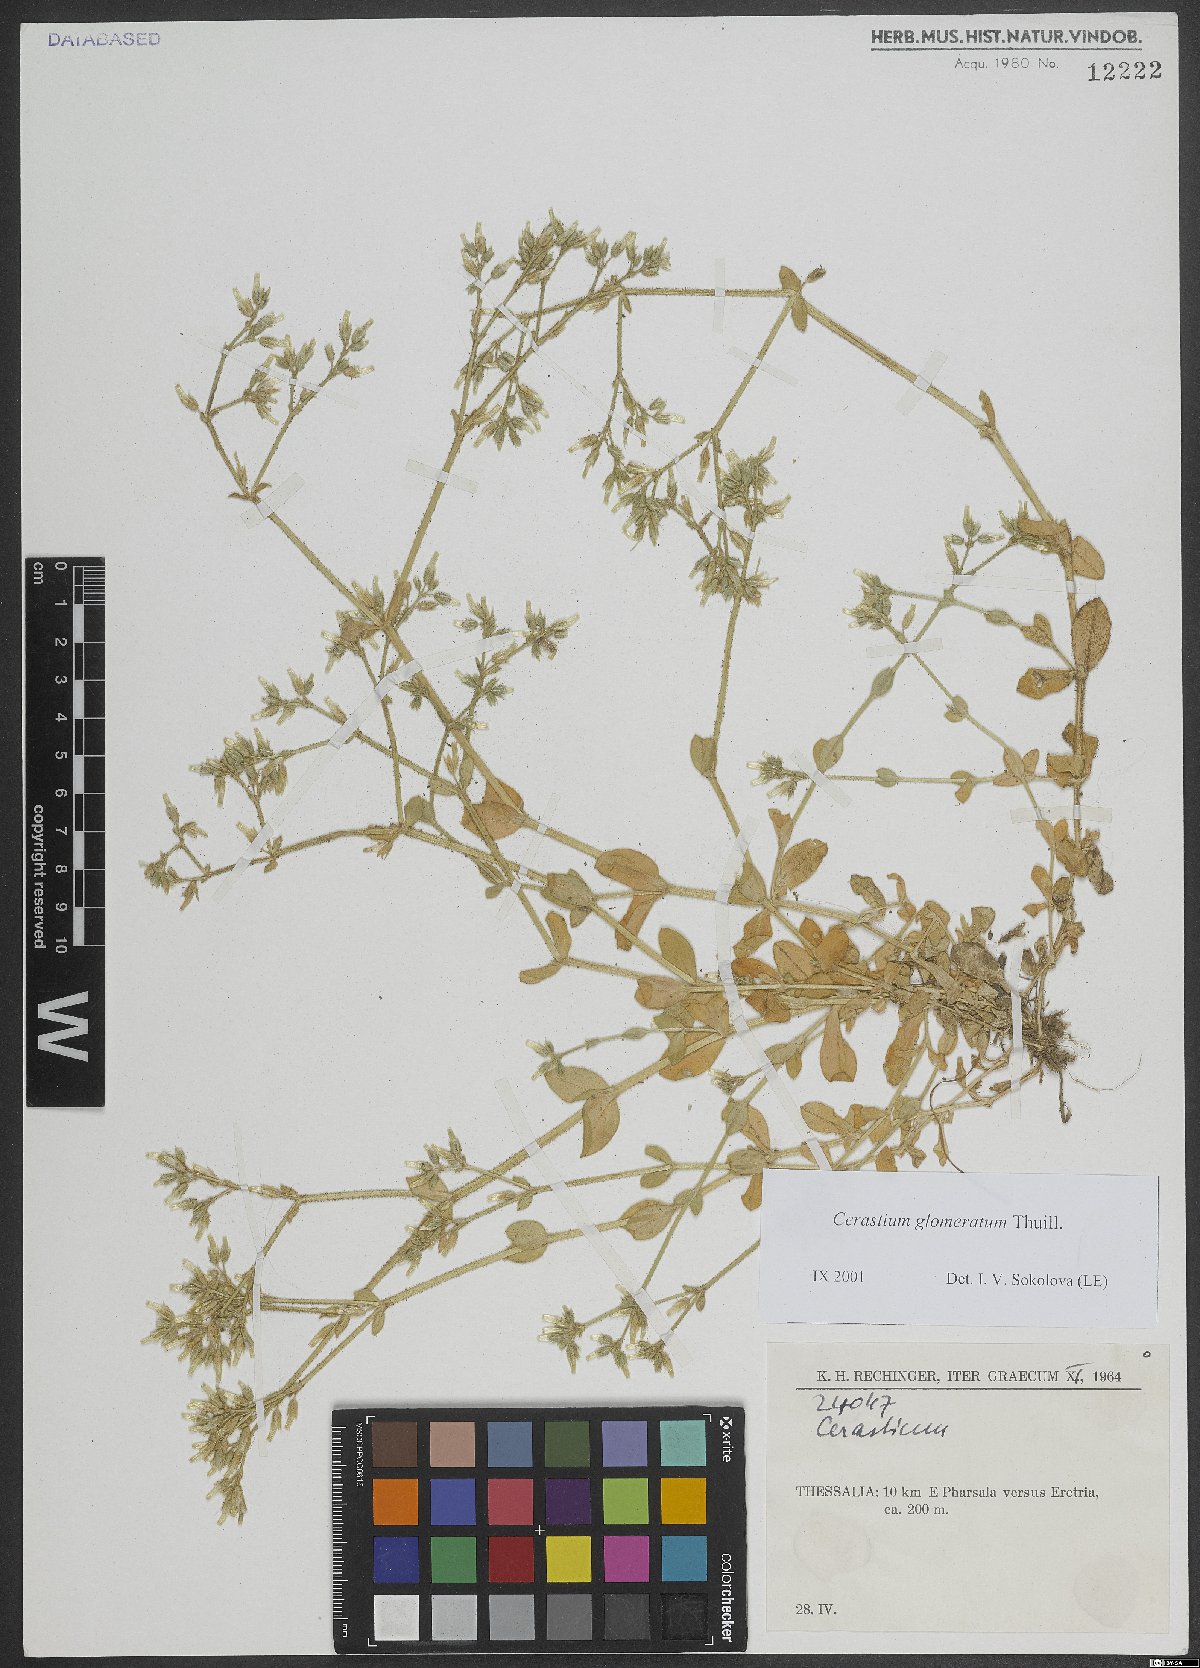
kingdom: Plantae
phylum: Tracheophyta
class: Magnoliopsida
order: Caryophyllales
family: Caryophyllaceae
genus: Cerastium
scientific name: Cerastium glomeratum
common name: Sticky chickweed
